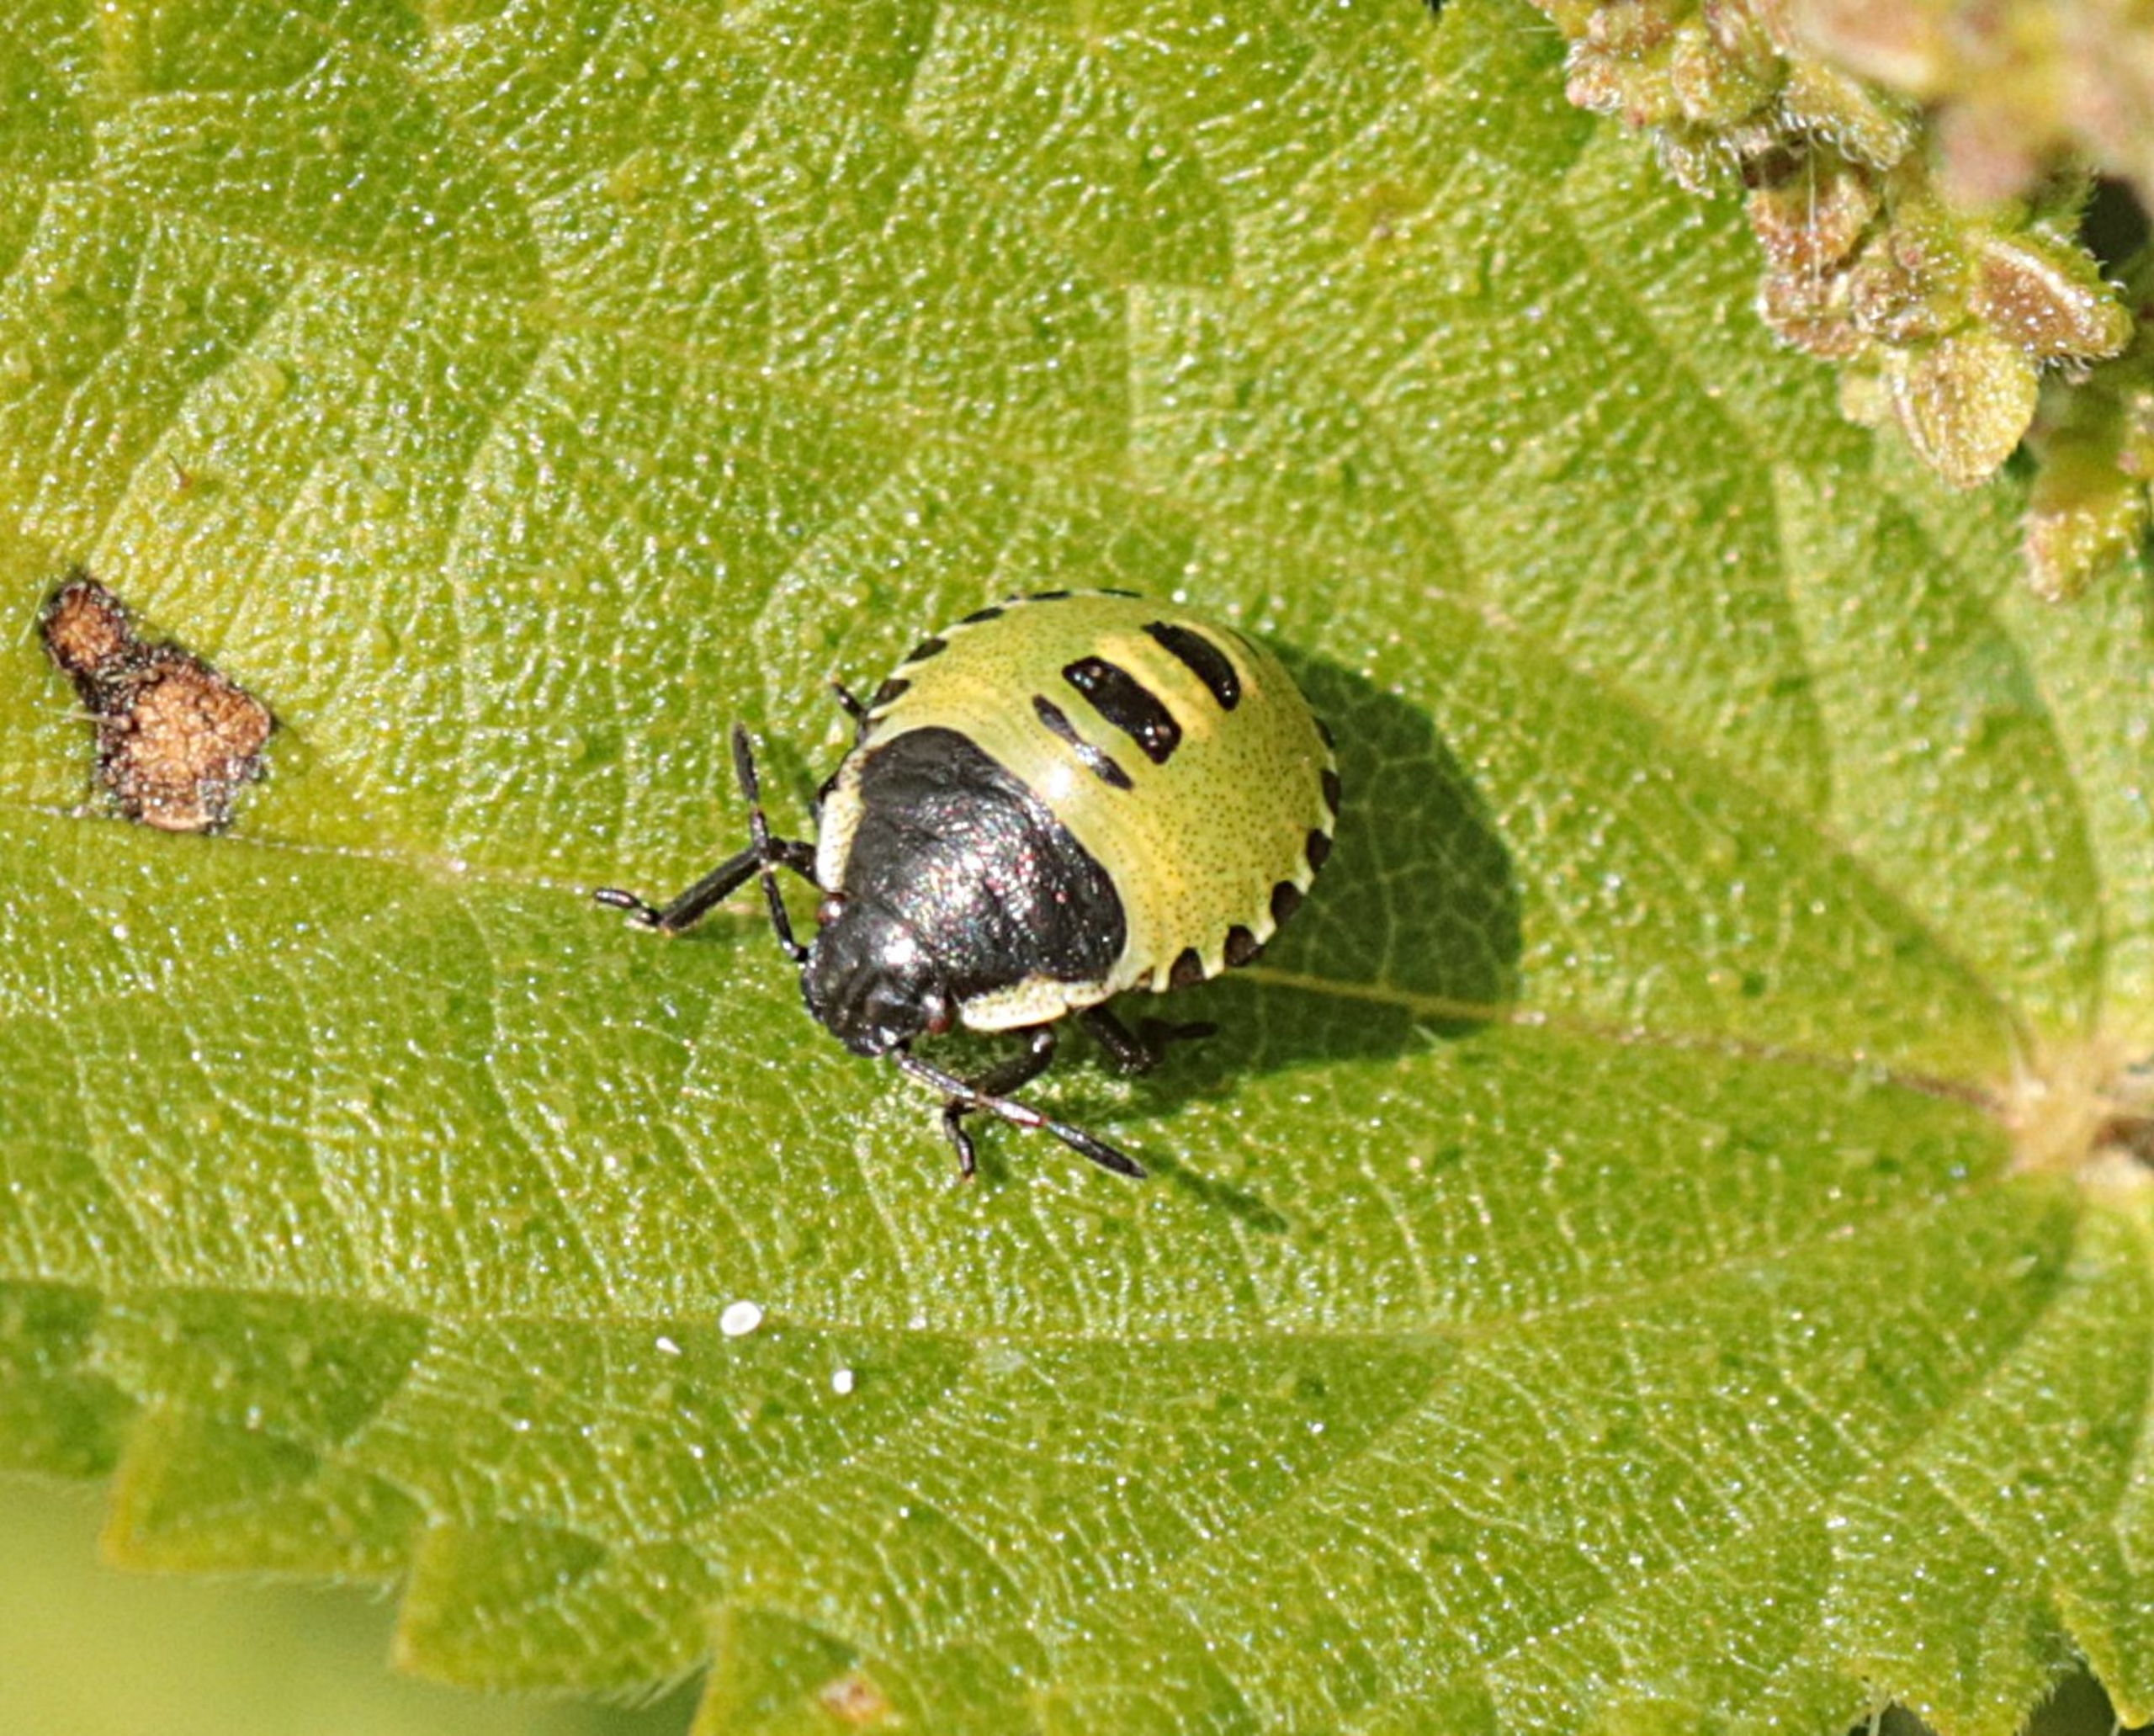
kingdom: Animalia
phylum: Arthropoda
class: Insecta
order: Hemiptera
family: Pentatomidae
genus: Palomena
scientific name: Palomena prasina
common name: Grøn bredtæge
